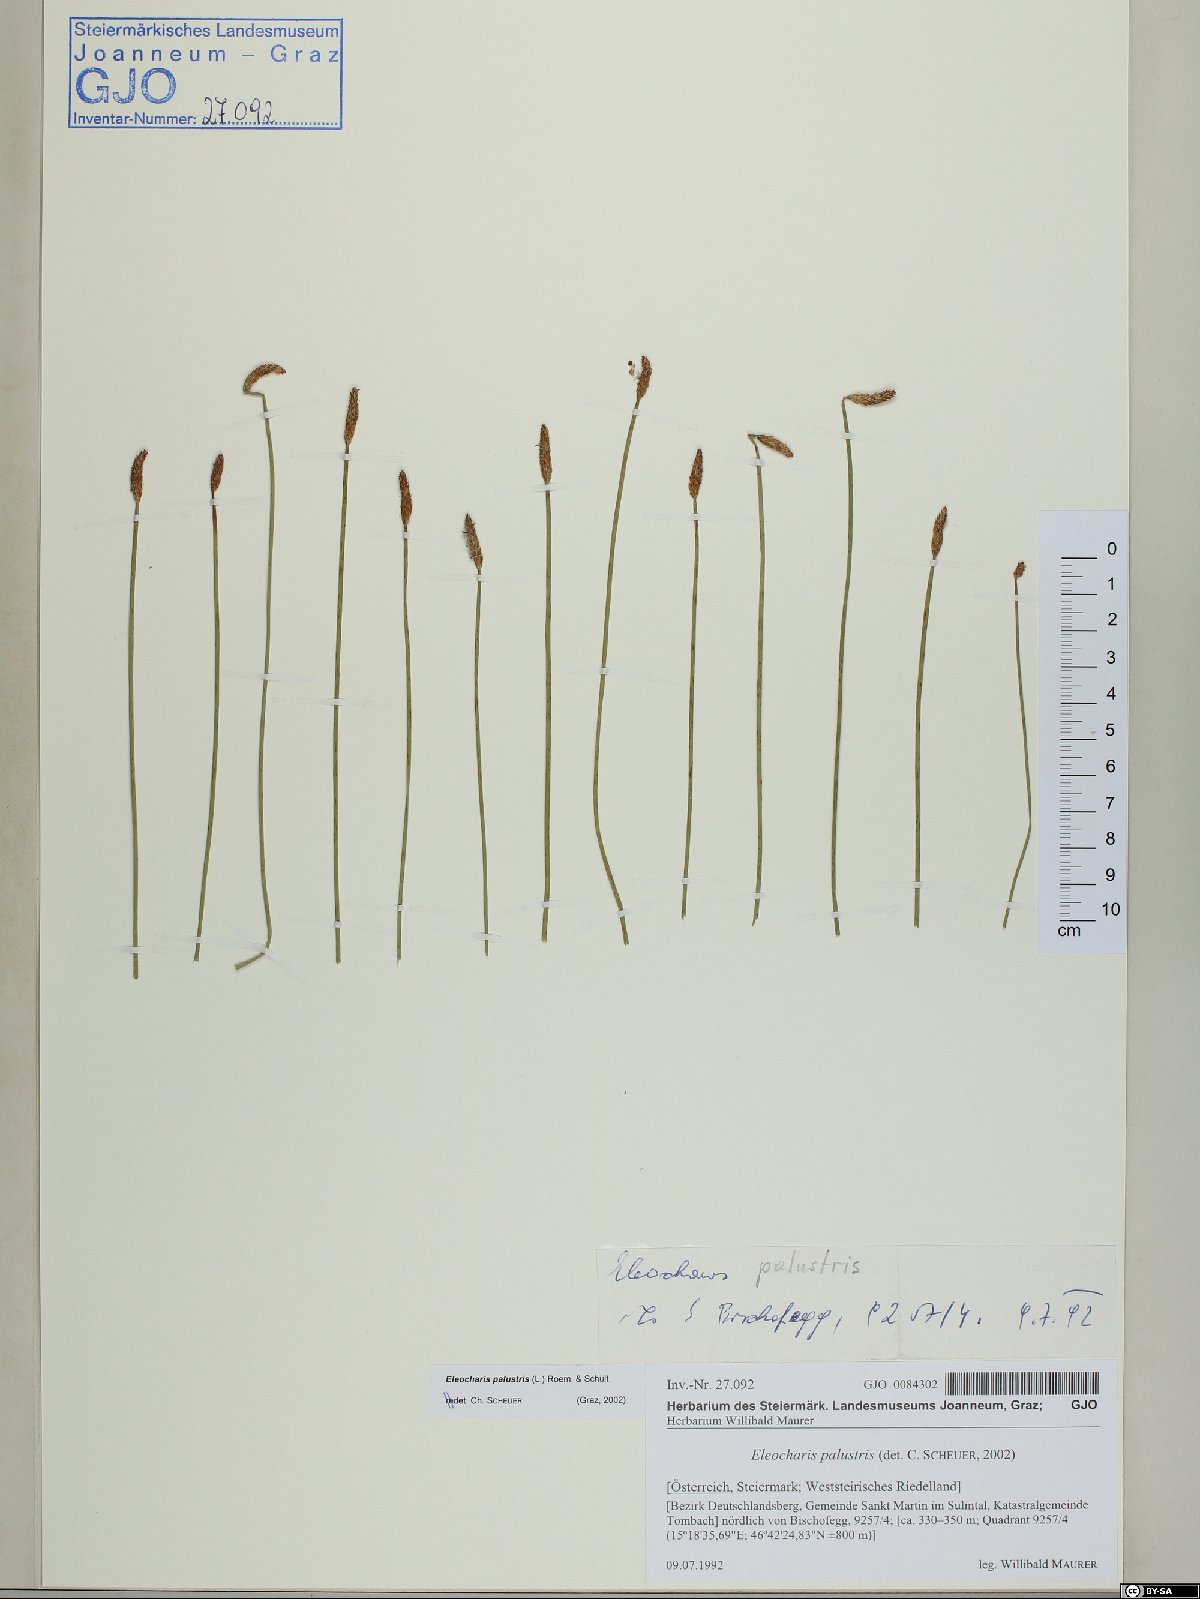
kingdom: Plantae
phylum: Tracheophyta
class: Liliopsida
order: Poales
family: Cyperaceae
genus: Eleocharis
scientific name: Eleocharis palustris
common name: Common spike-rush
